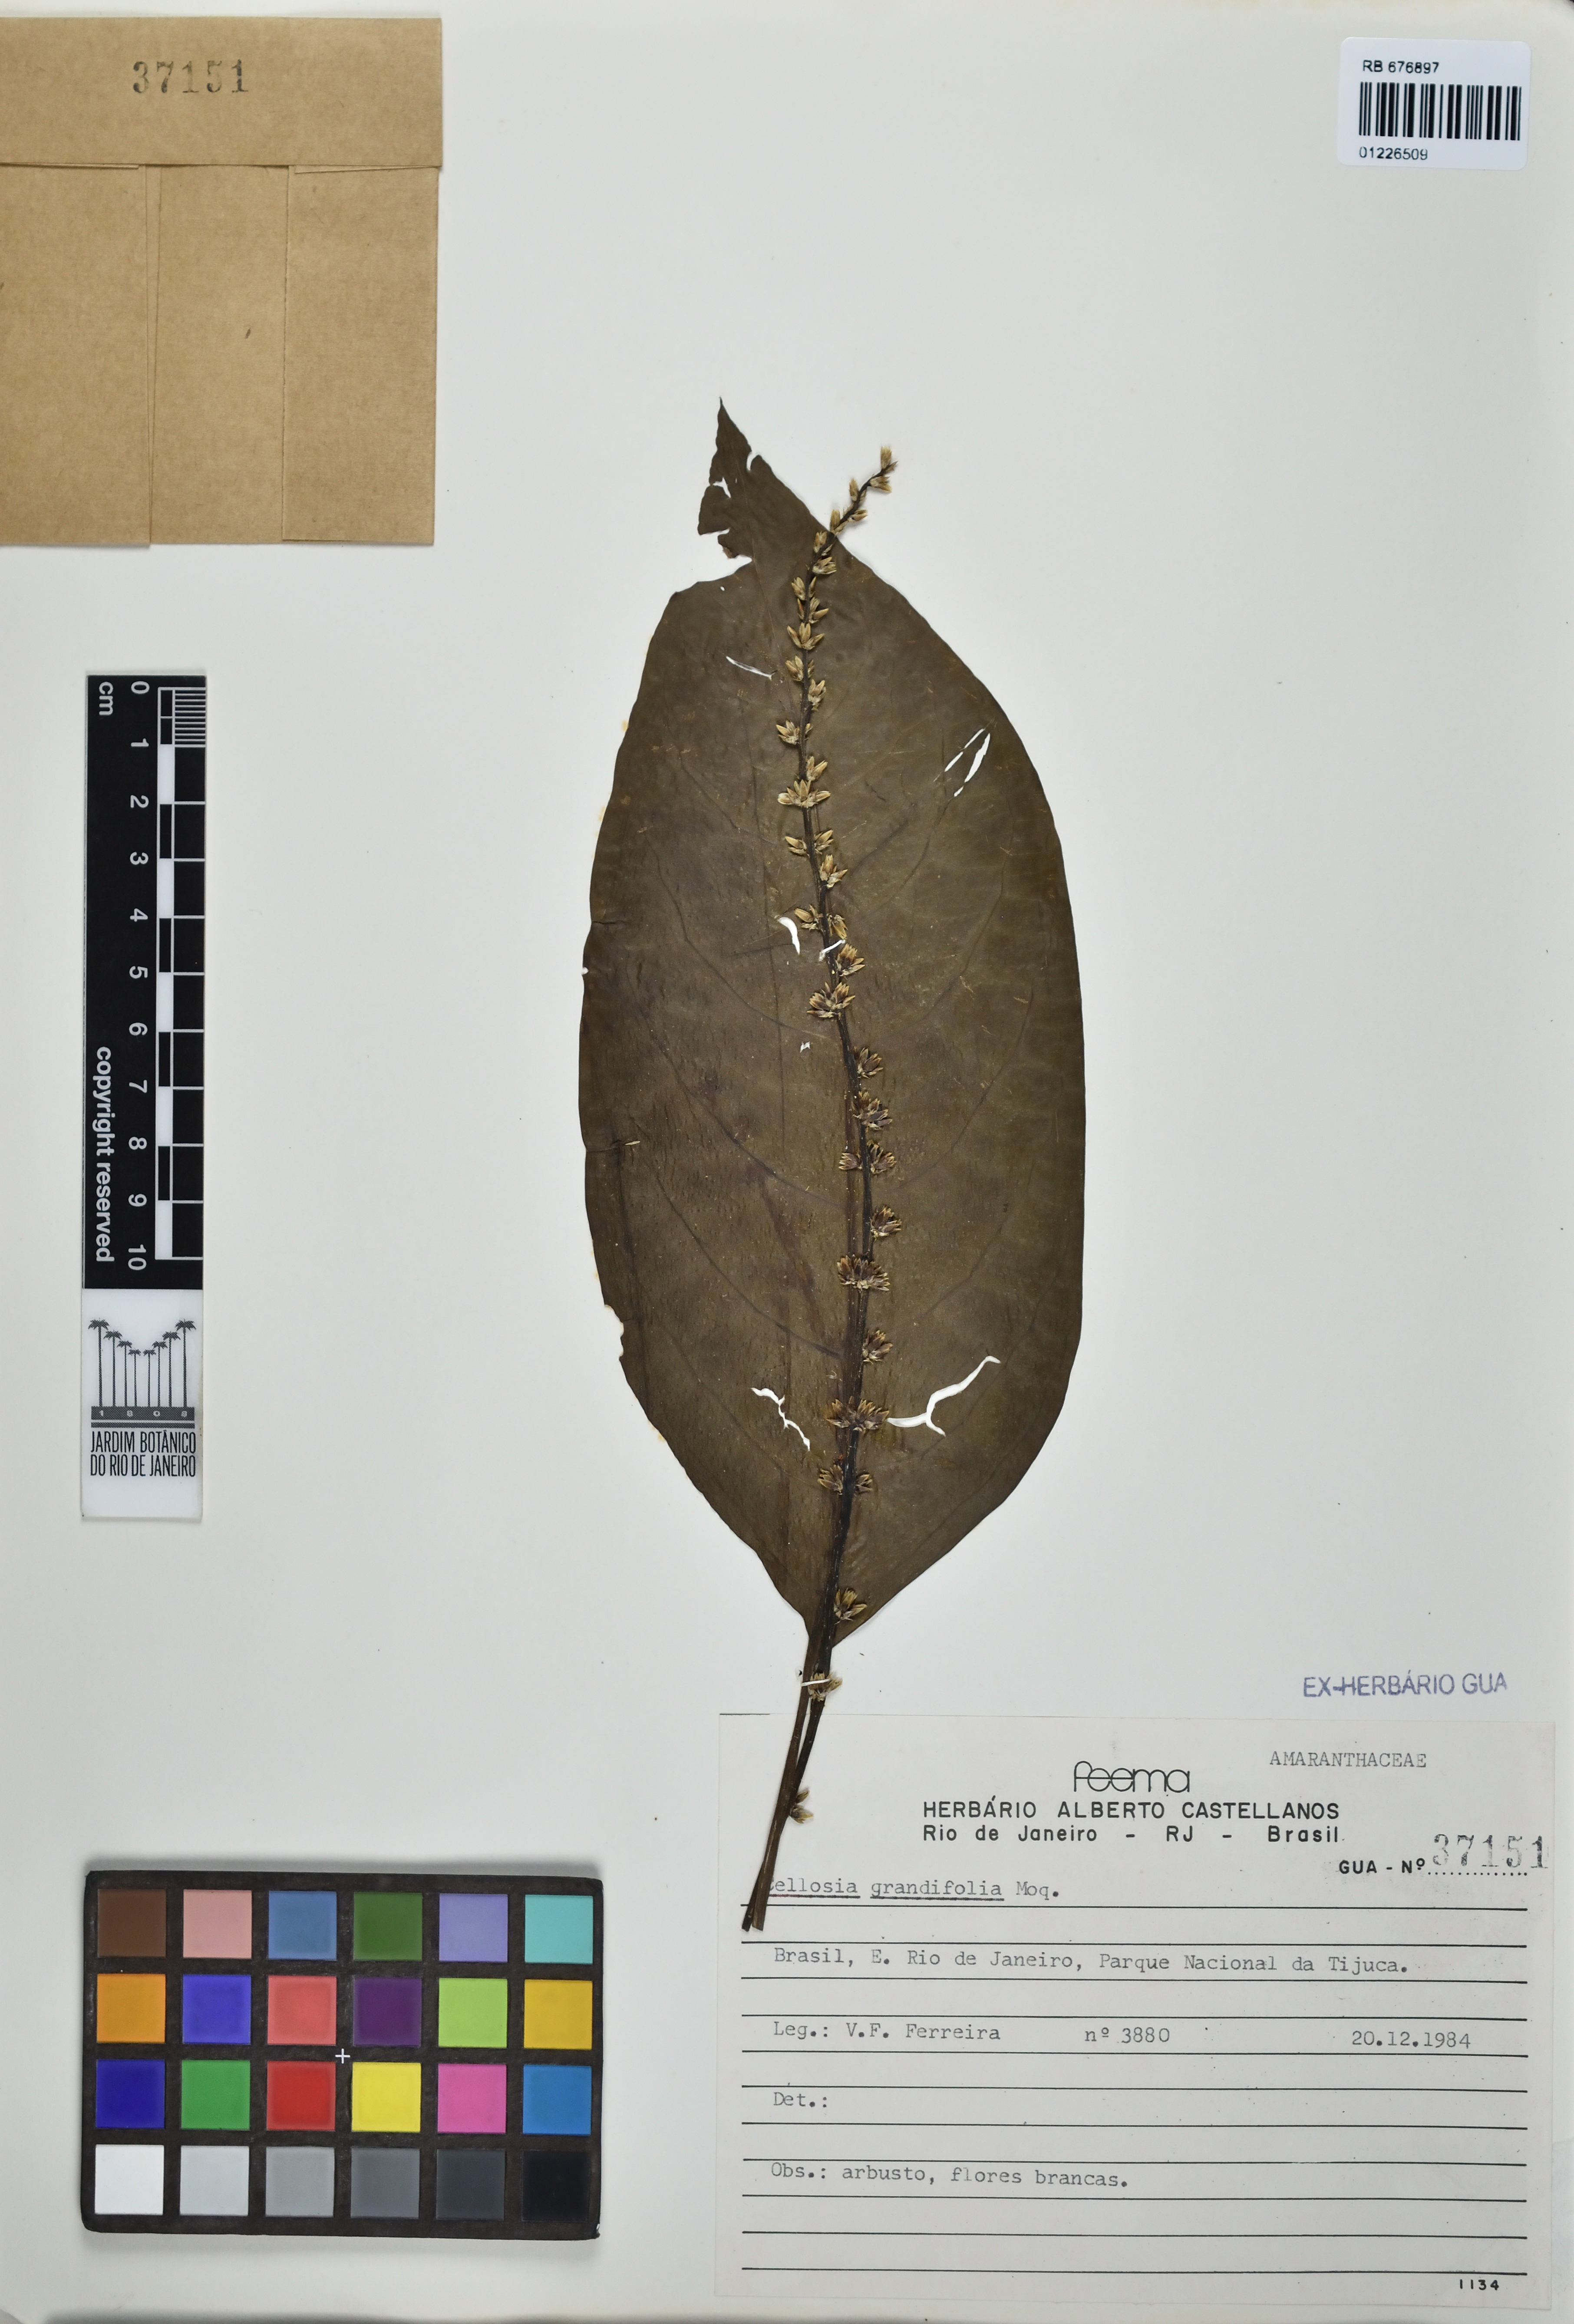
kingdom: Plantae
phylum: Tracheophyta
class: Magnoliopsida
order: Caryophyllales
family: Amaranthaceae
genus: Celosia
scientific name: Celosia grandifolia
